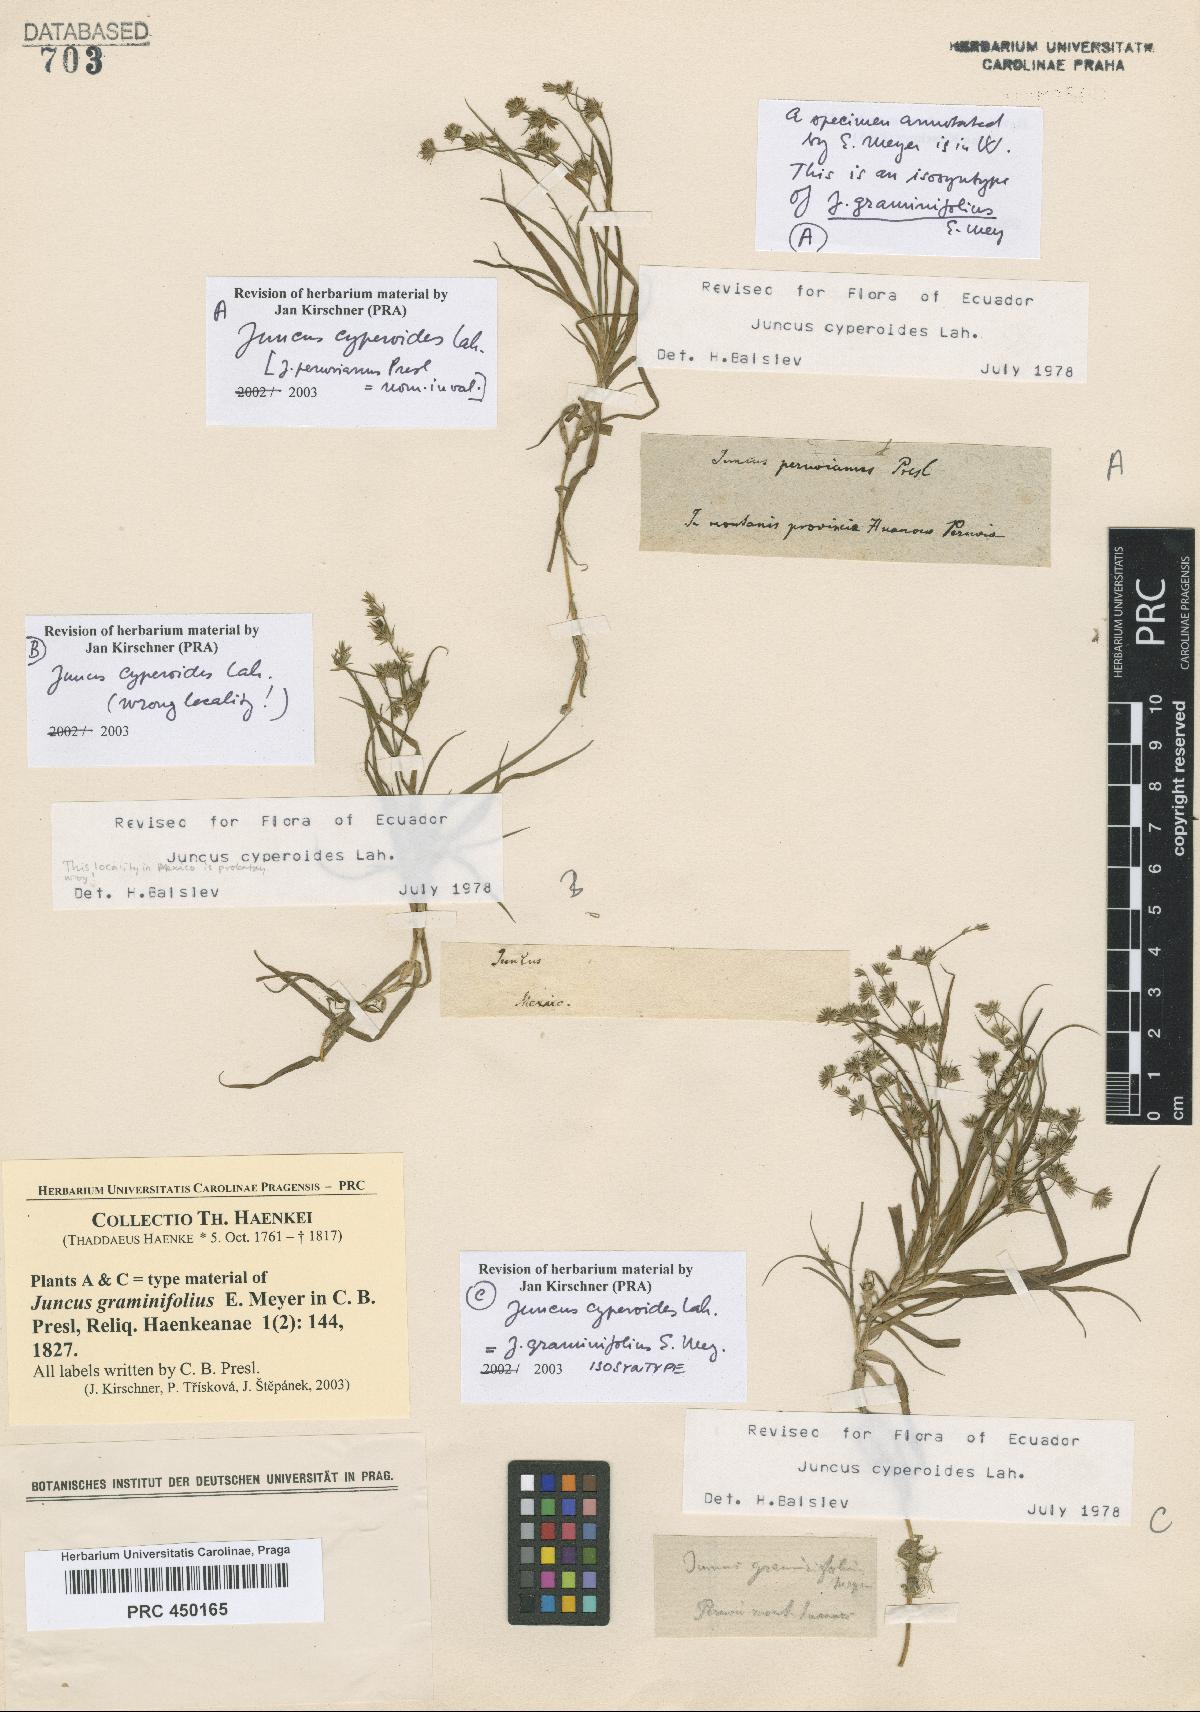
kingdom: Plantae
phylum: Tracheophyta
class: Liliopsida
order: Poales
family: Juncaceae
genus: Juncus
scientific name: Juncus cyperoides
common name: Forbestown rush
